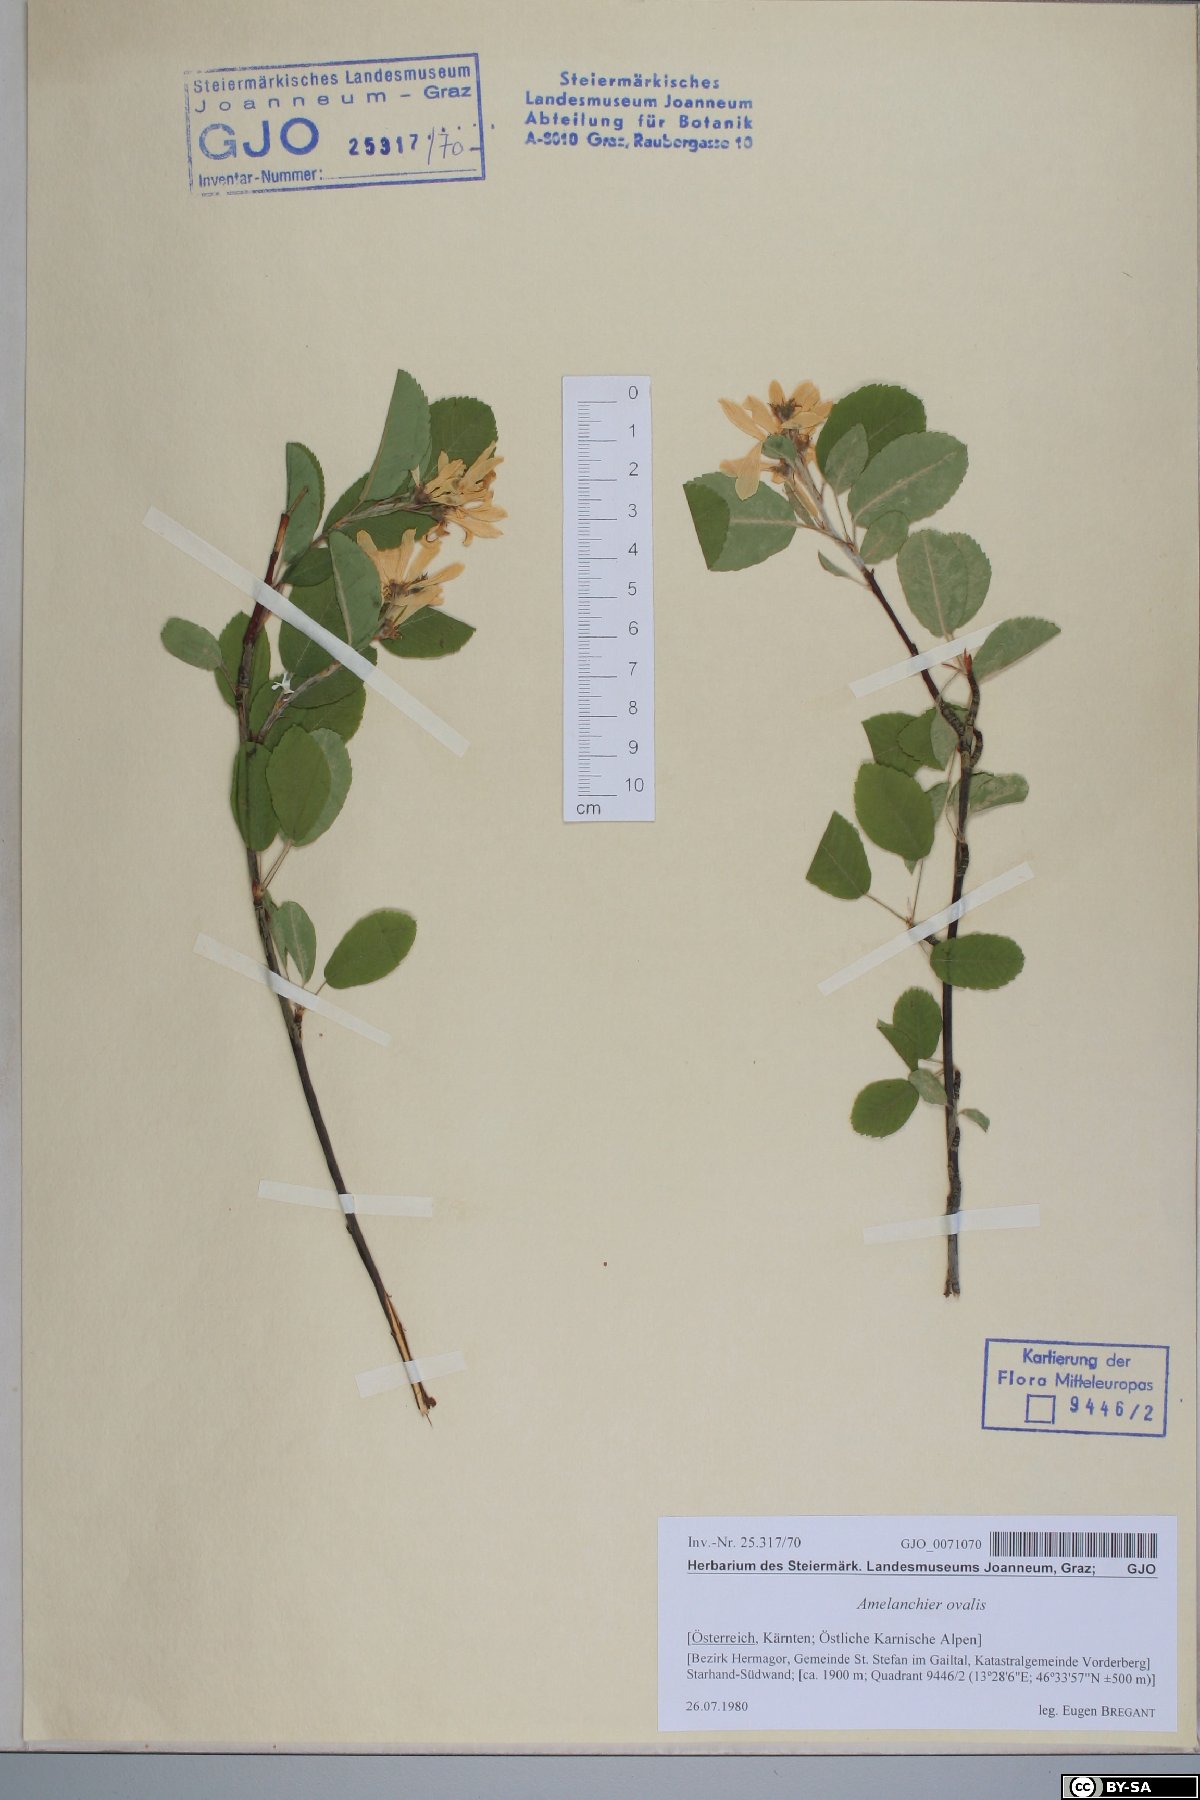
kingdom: Plantae
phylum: Tracheophyta
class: Magnoliopsida
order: Rosales
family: Rosaceae
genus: Amelanchier
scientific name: Amelanchier ovalis
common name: Serviceberry
